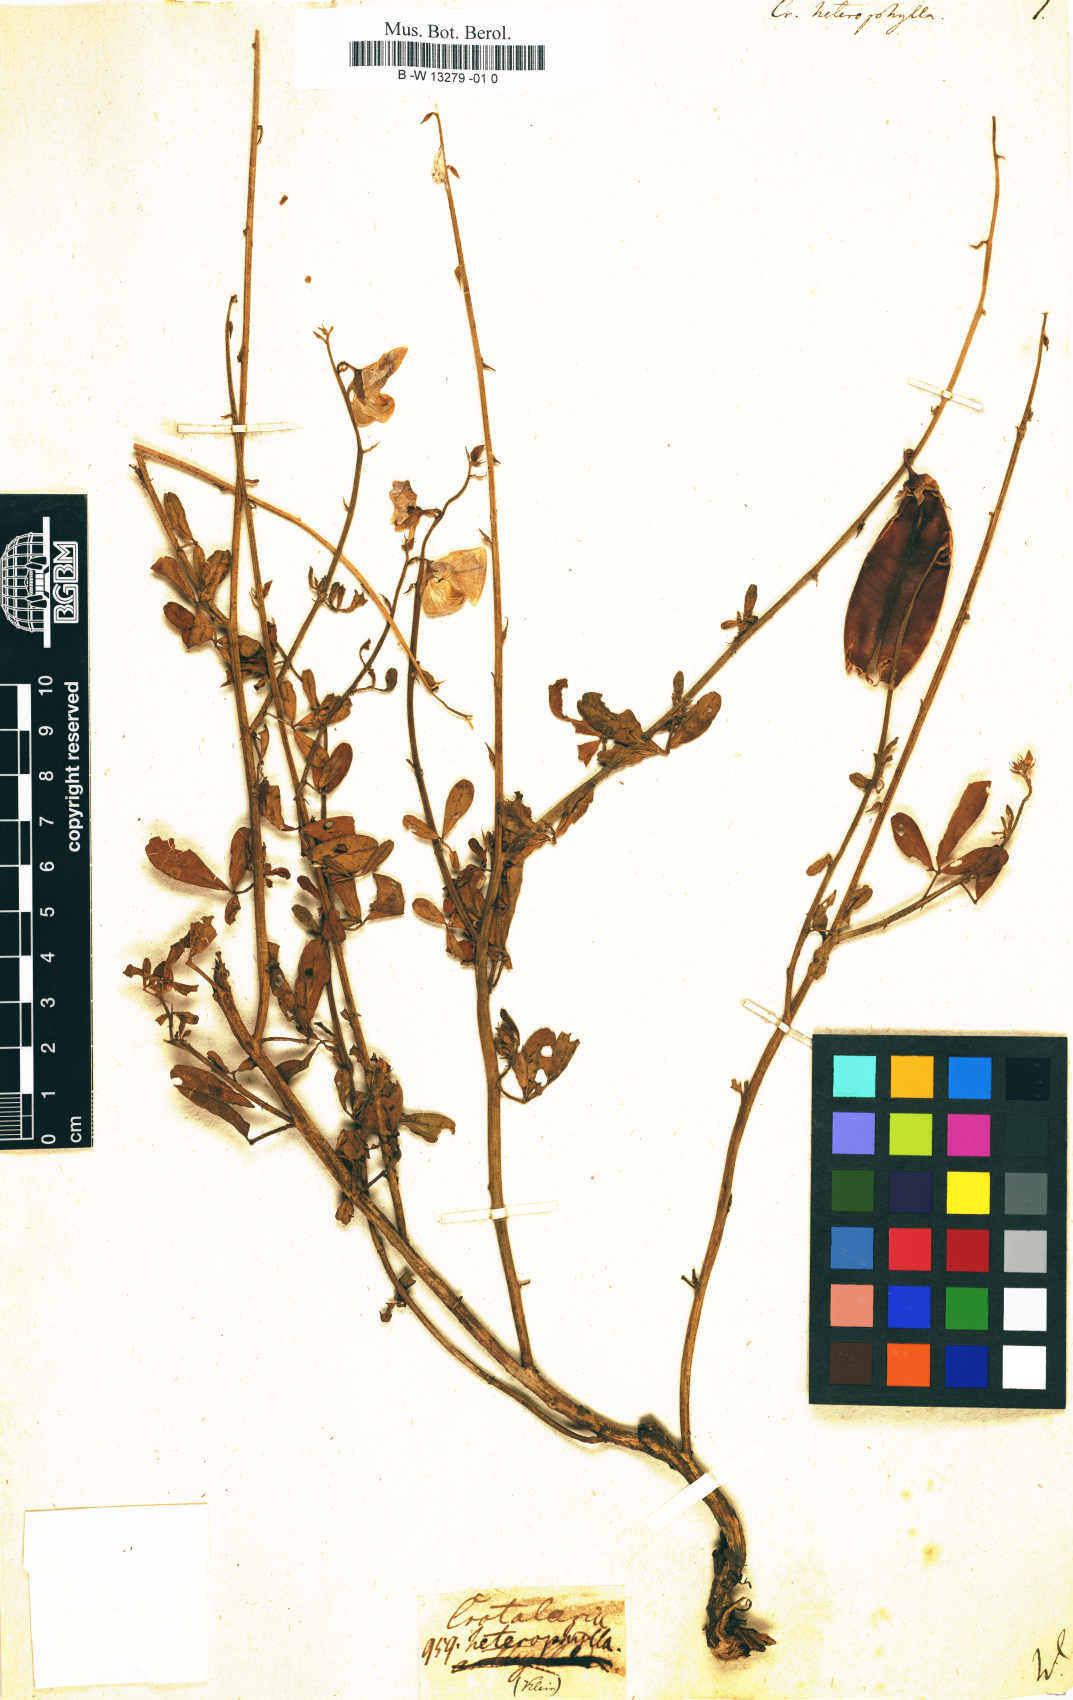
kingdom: Plantae
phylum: Tracheophyta
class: Magnoliopsida
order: Fabales
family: Fabaceae
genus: Crotalaria
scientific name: Crotalaria quinquefolia
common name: Five-leaf crotalaria
